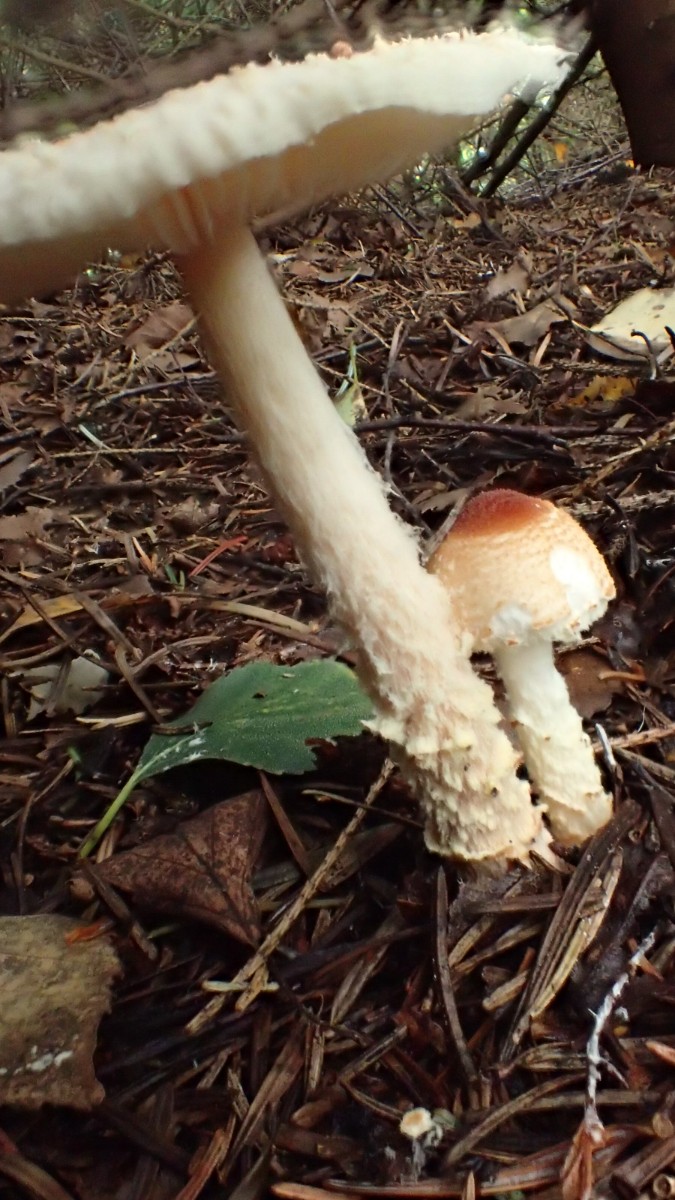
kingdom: Fungi
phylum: Basidiomycota
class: Agaricomycetes
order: Agaricales
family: Agaricaceae
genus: Lepiota
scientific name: Lepiota magnispora
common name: gulfnugget parasolhat
